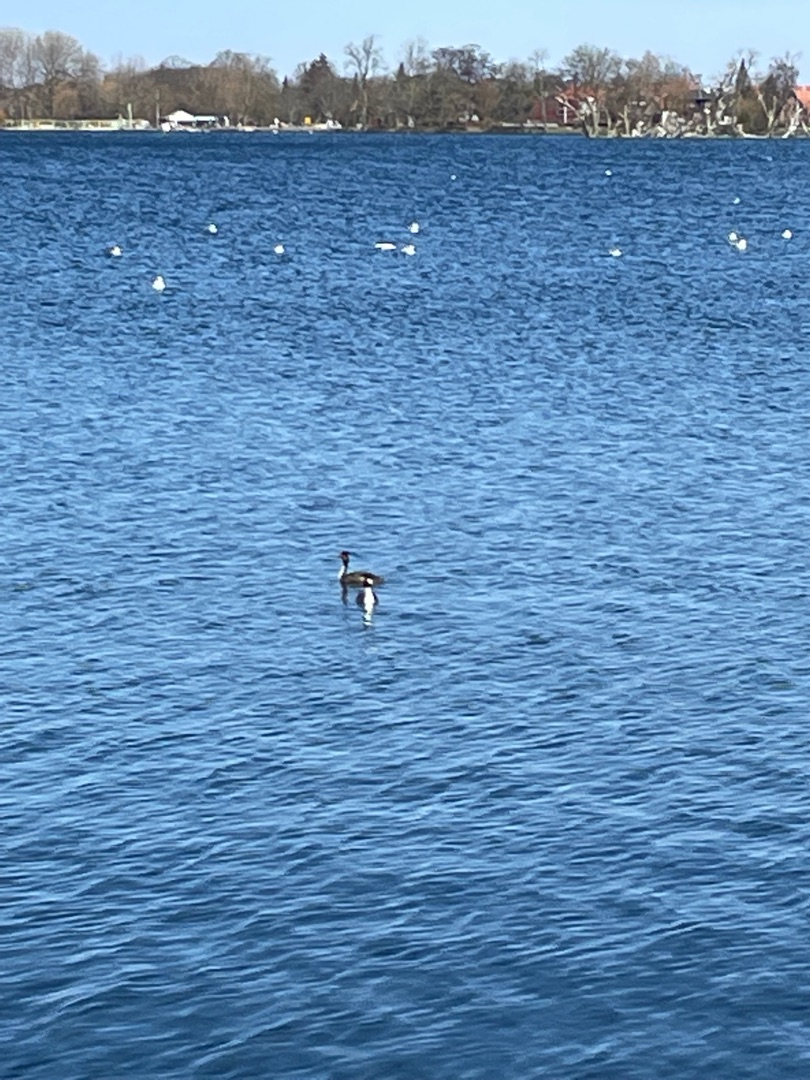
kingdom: Animalia
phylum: Chordata
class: Aves
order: Podicipediformes
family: Podicipedidae
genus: Podiceps
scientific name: Podiceps cristatus
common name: Toppet lappedykker
